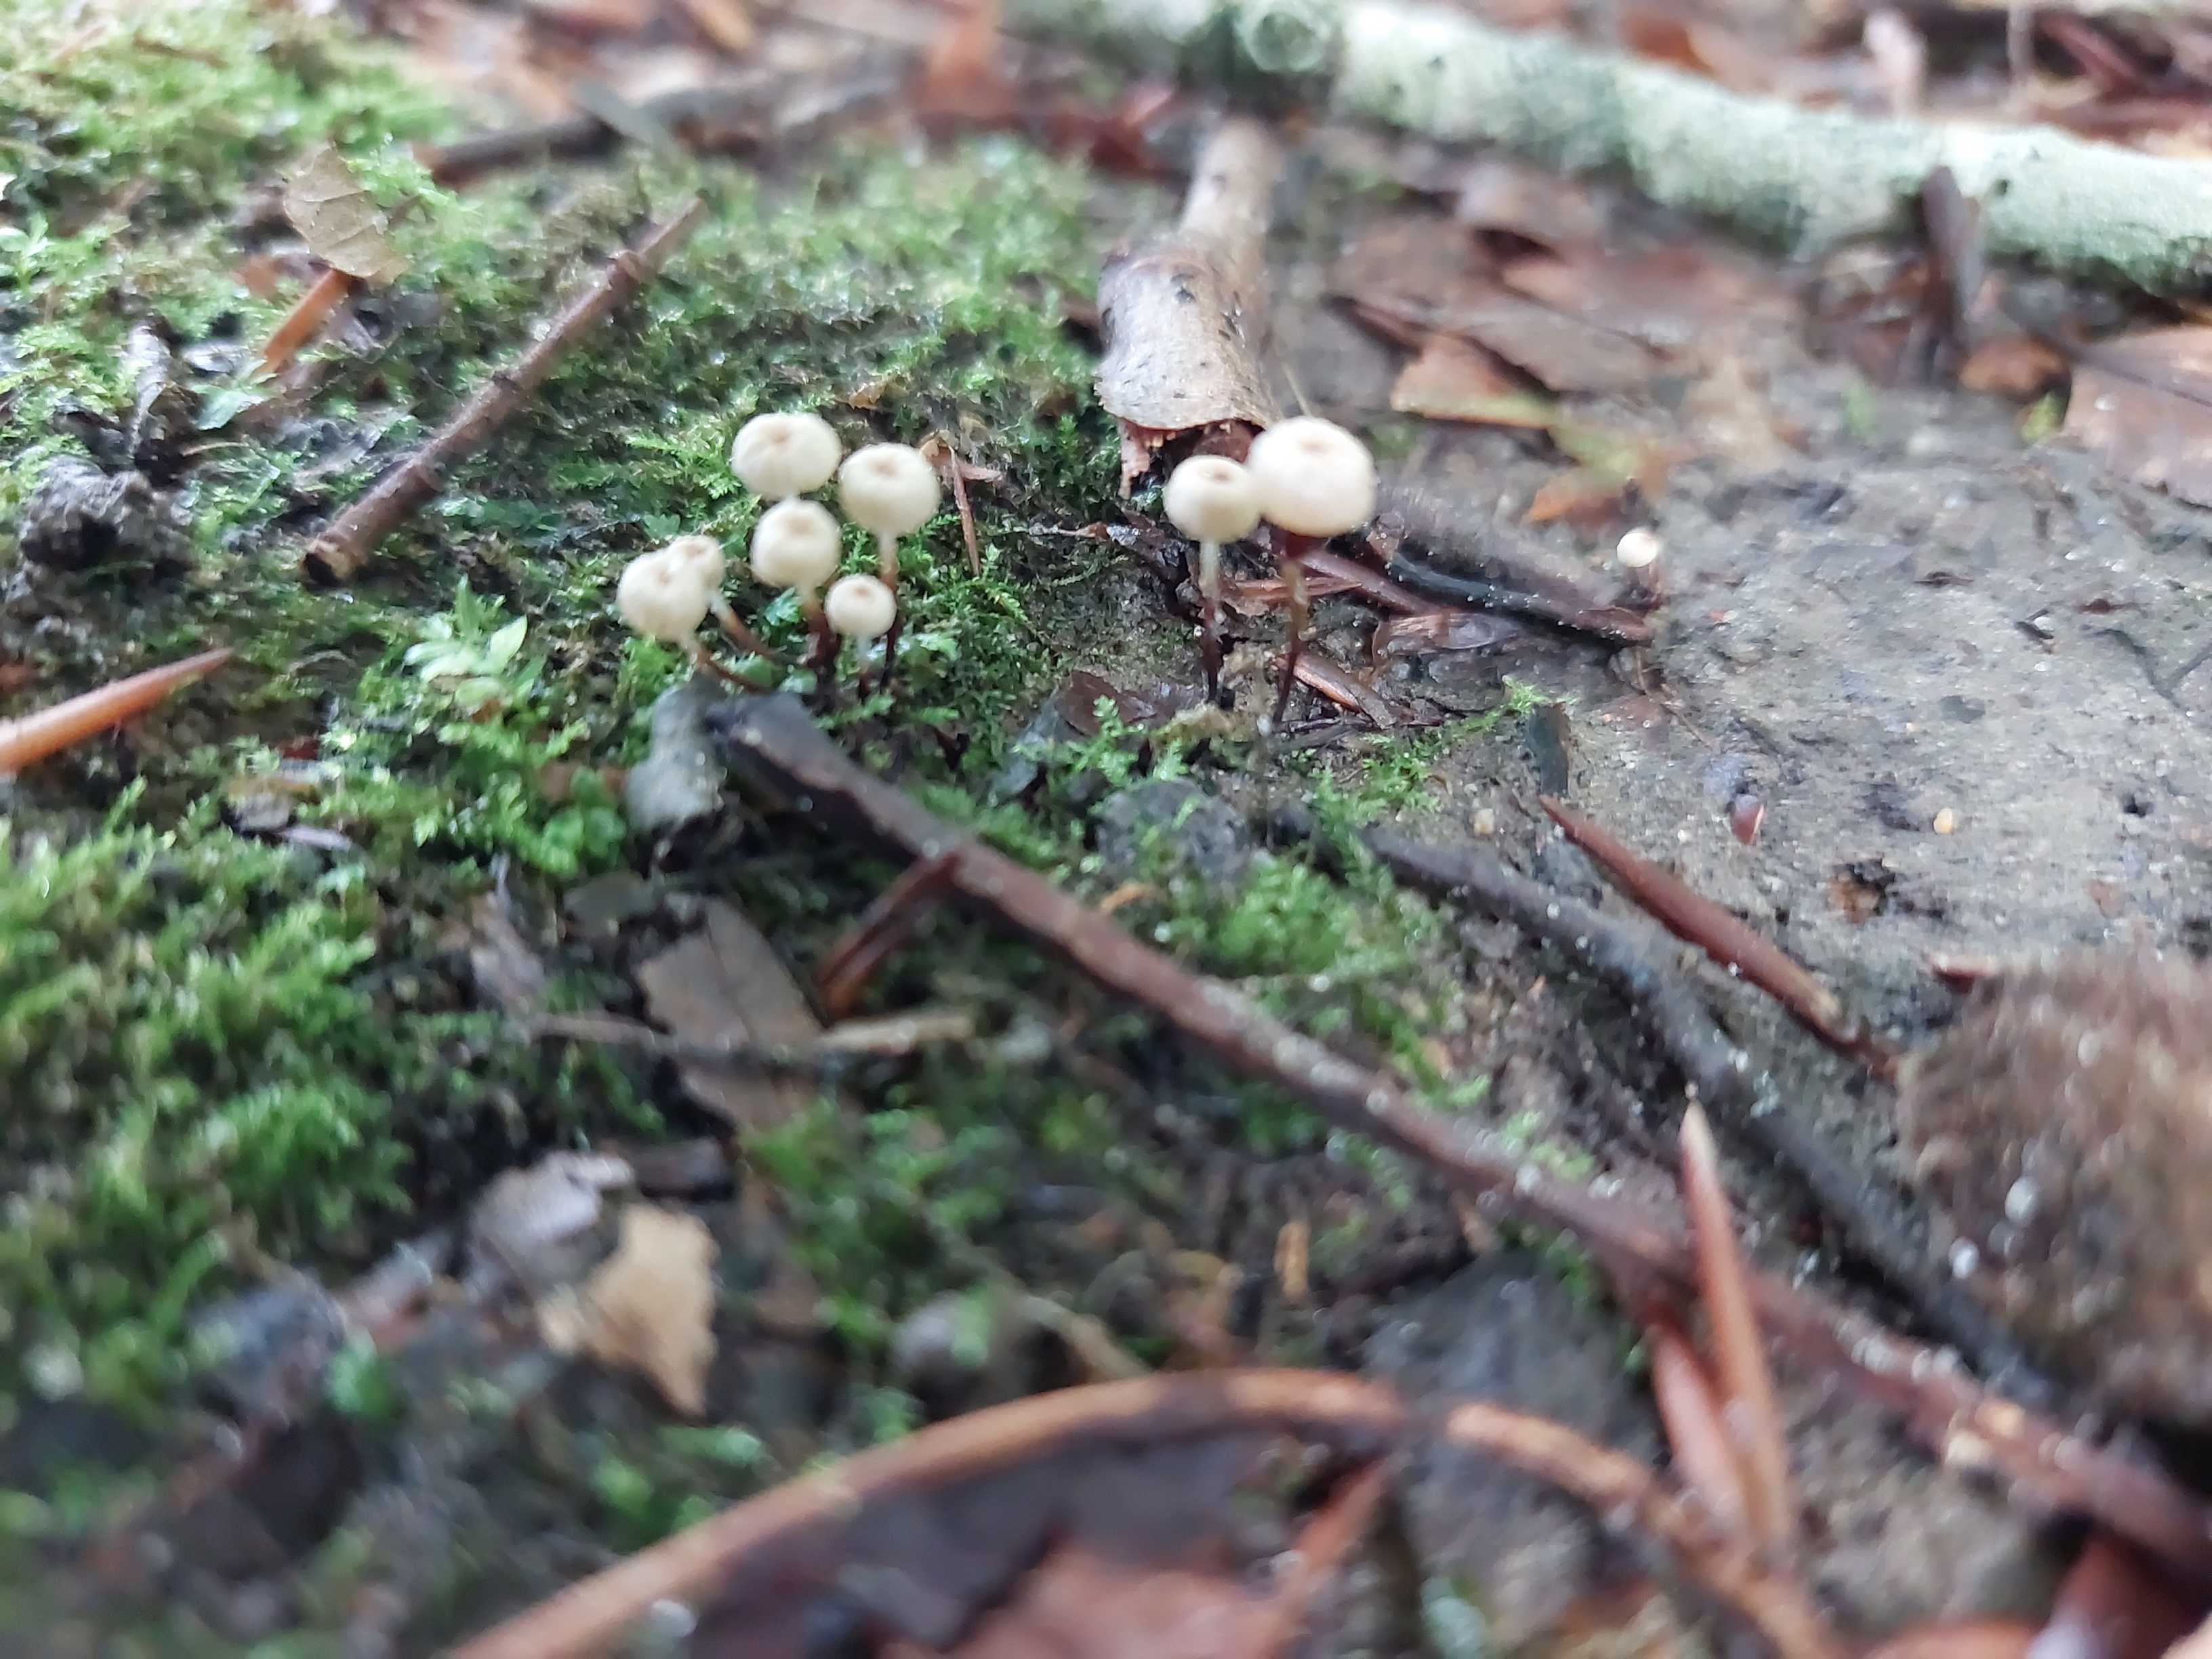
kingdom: Fungi
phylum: Basidiomycota
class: Agaricomycetes
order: Agaricales
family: Marasmiaceae
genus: Marasmius
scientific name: Marasmius rotula
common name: hjul-bruskhat
